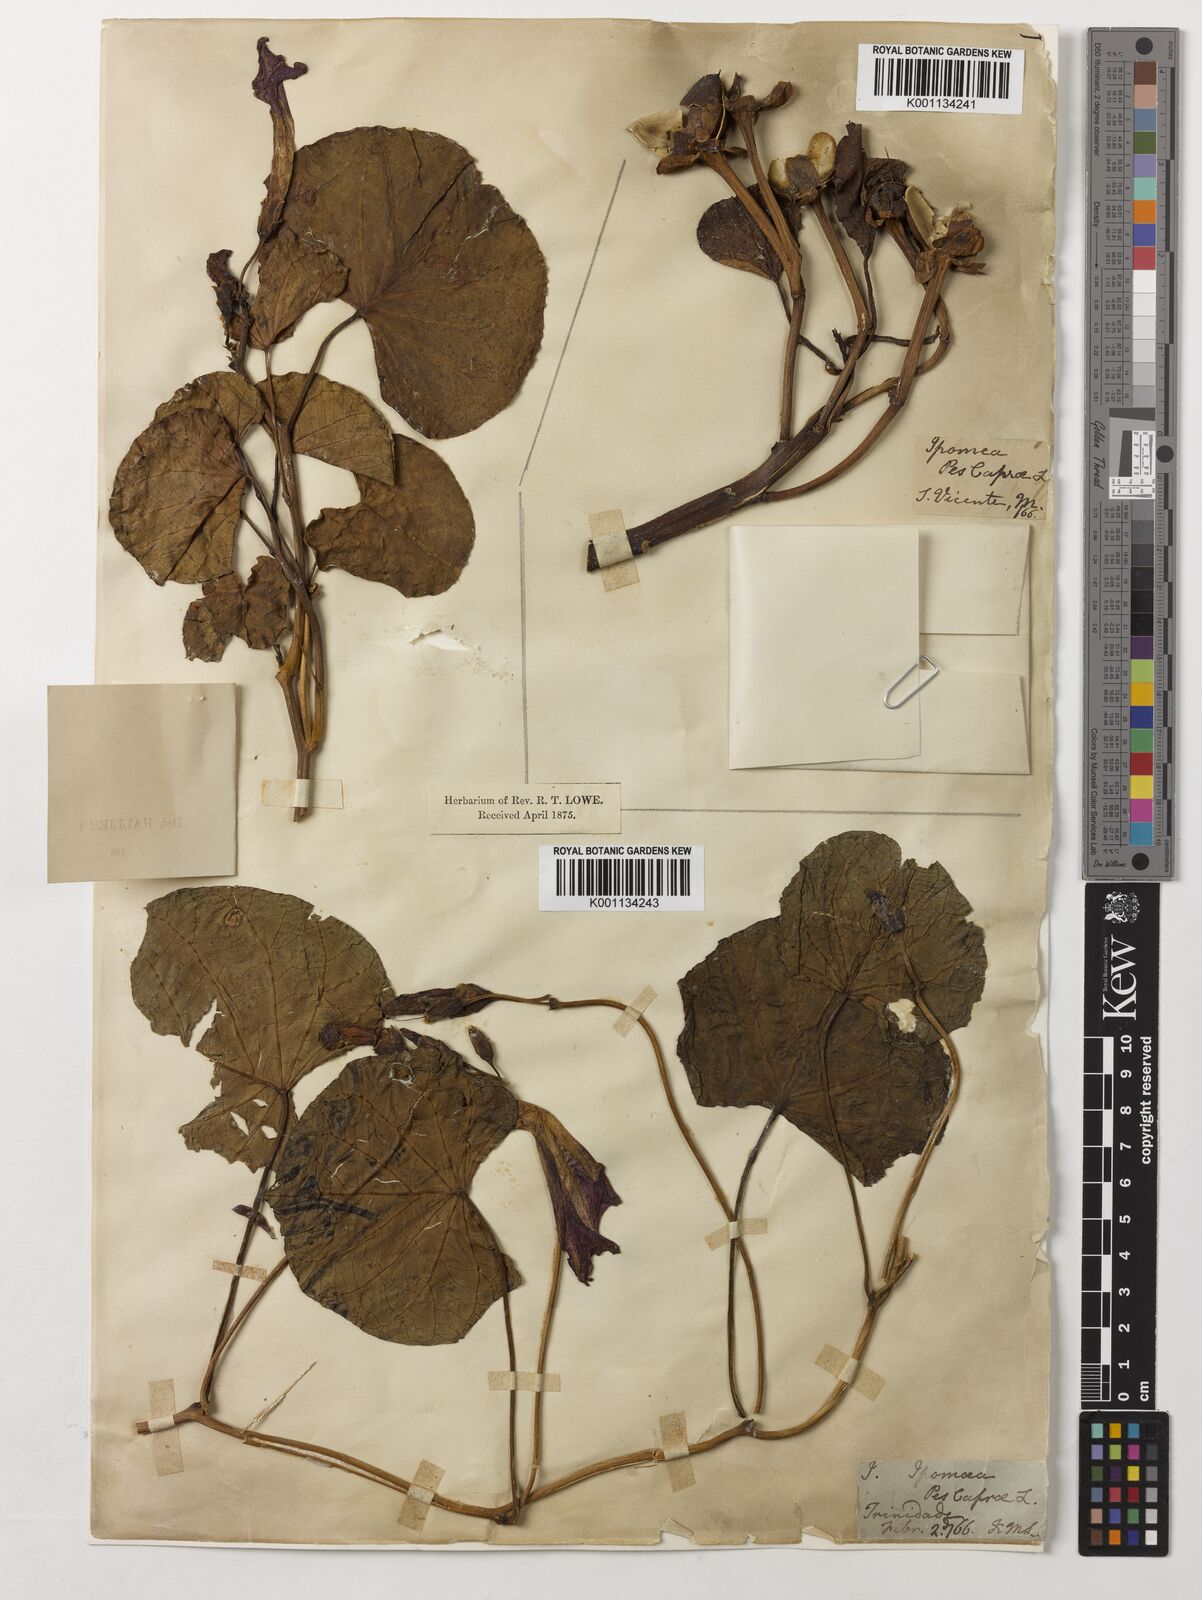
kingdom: Plantae
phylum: Tracheophyta
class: Magnoliopsida
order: Solanales
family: Convolvulaceae
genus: Ipomoea
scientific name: Ipomoea pes-caprae
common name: Beach morning glory
